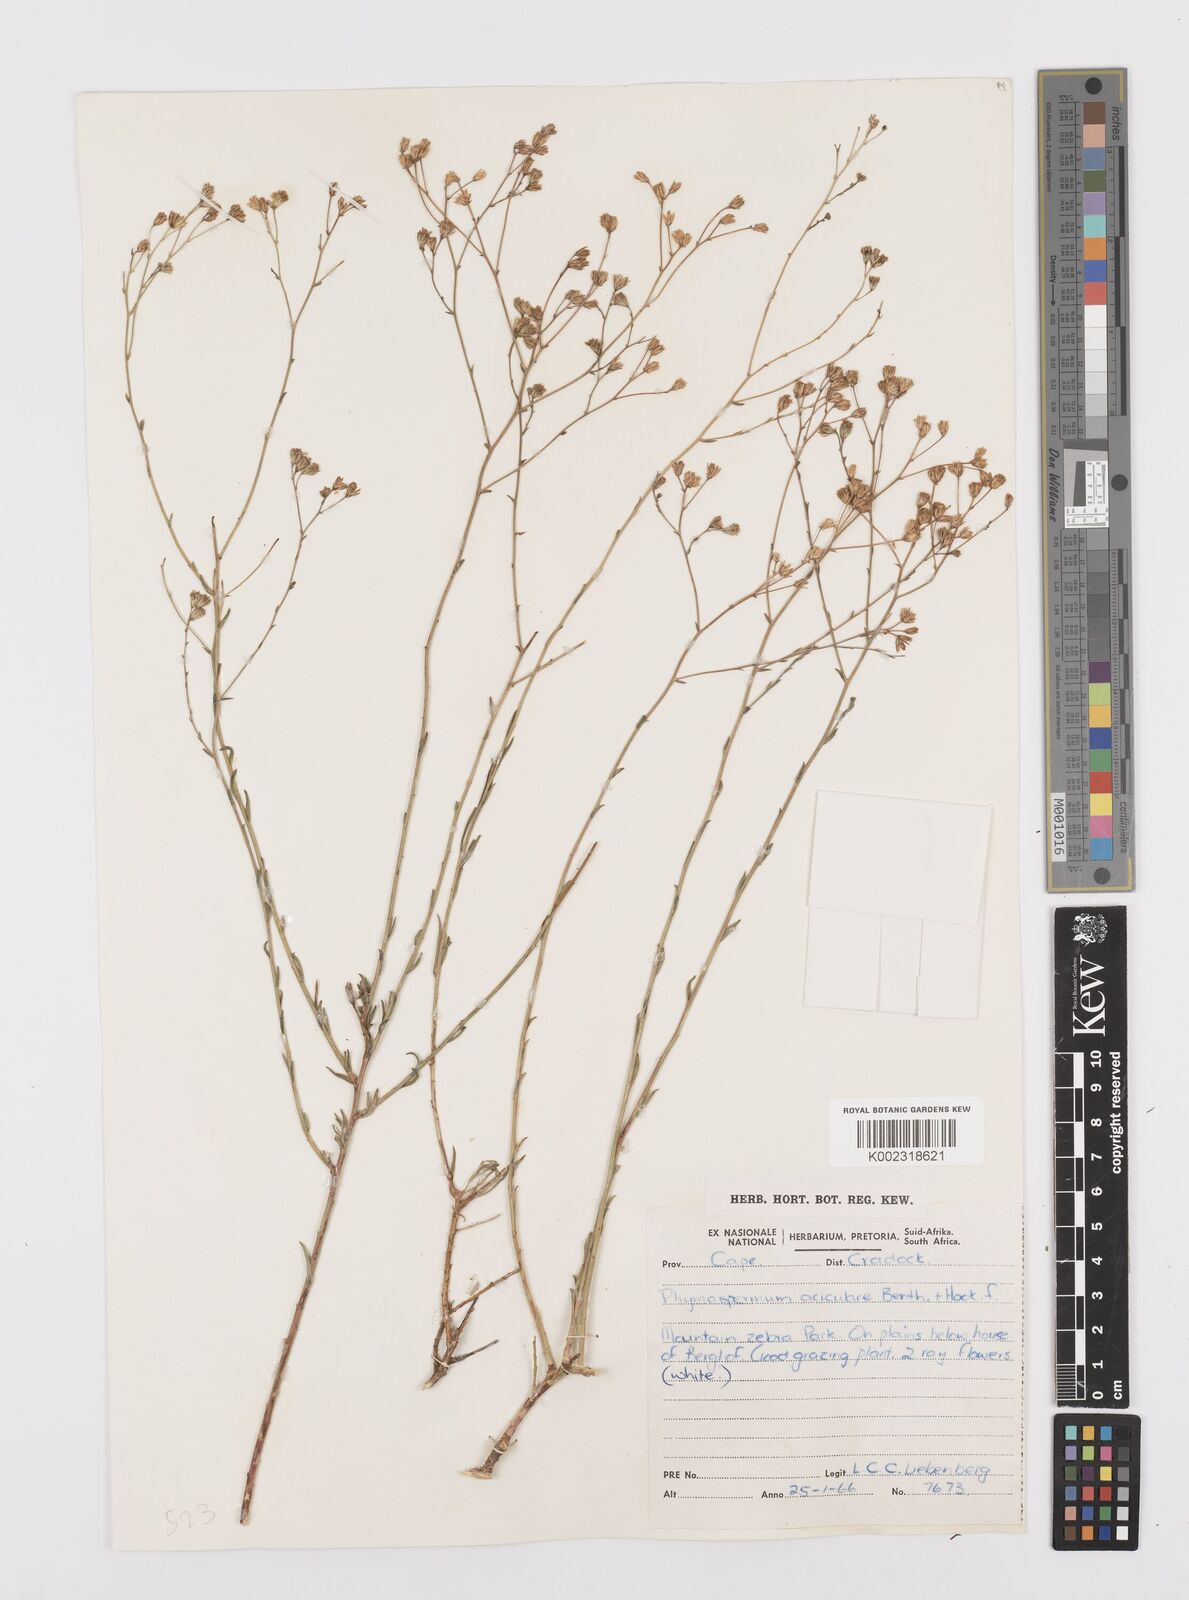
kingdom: Plantae
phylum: Tracheophyta
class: Magnoliopsida
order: Asterales
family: Asteraceae
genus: Phymaspermum
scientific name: Phymaspermum aciculare
